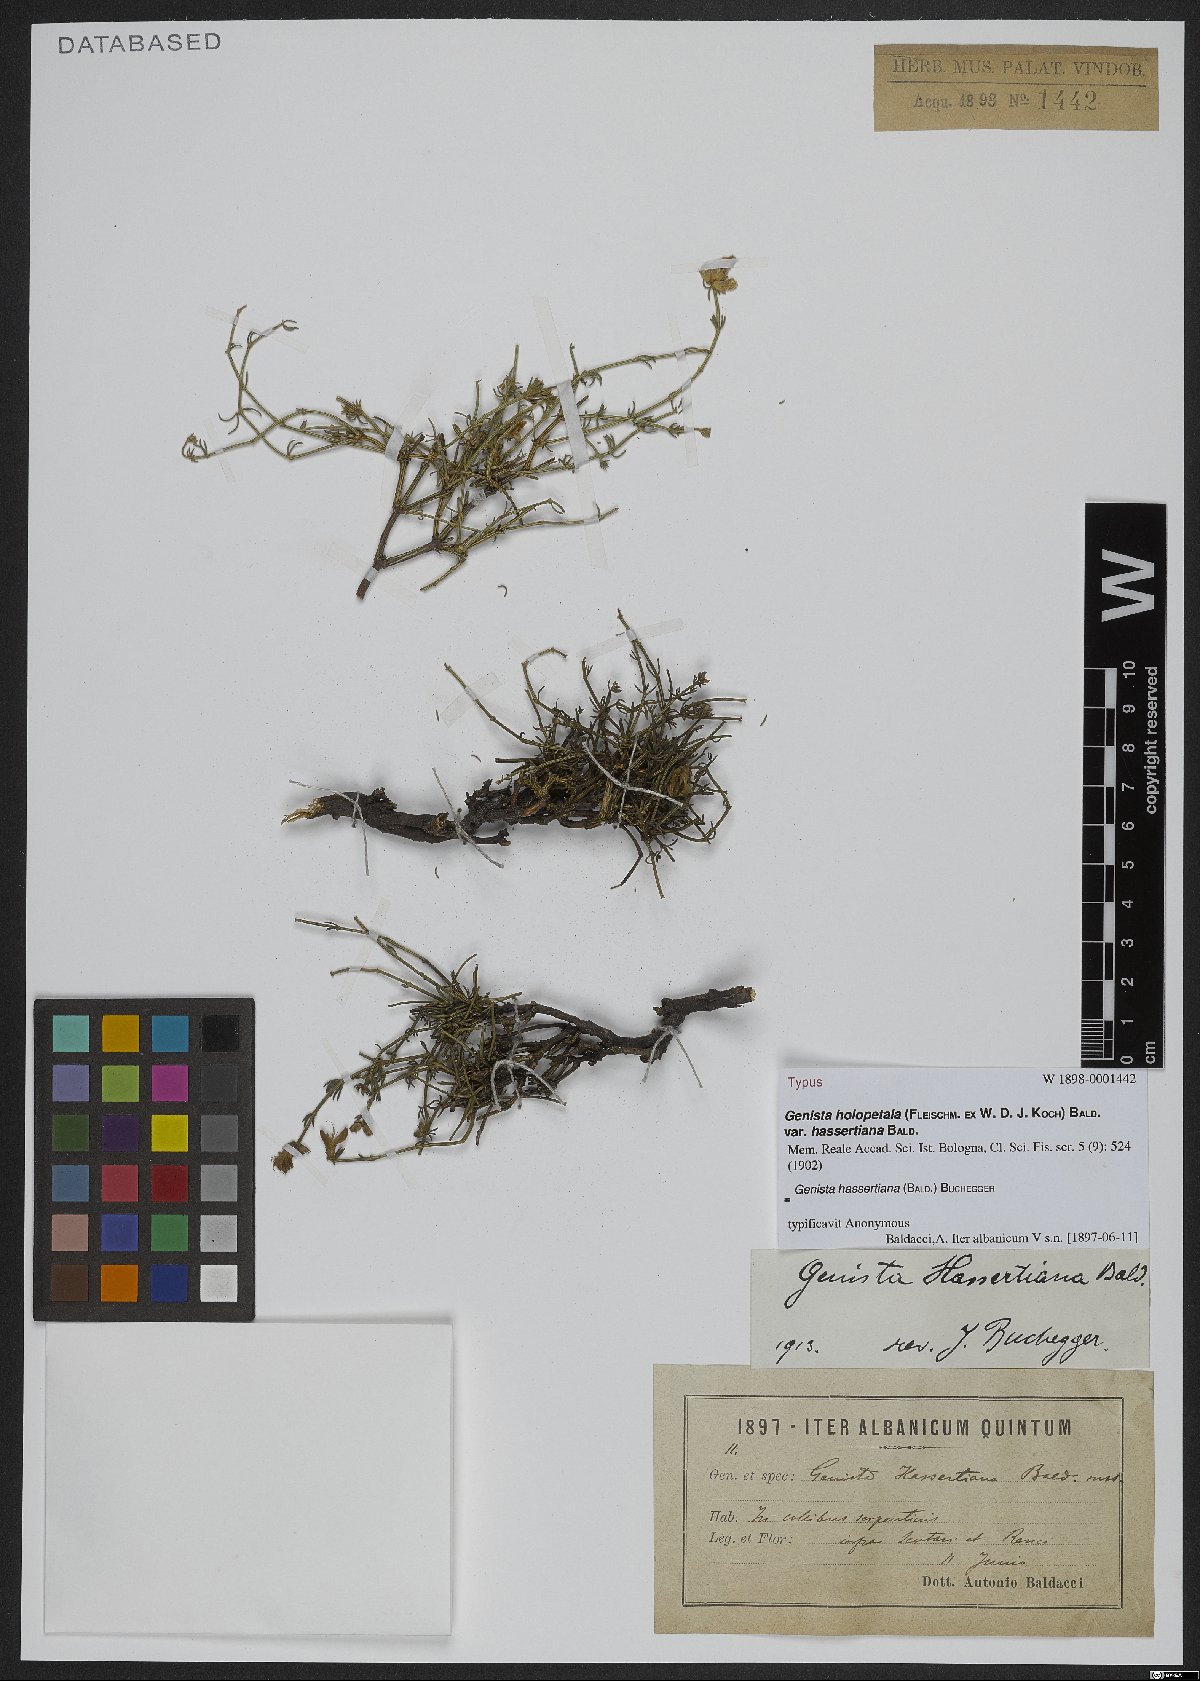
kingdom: Plantae
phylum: Tracheophyta
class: Magnoliopsida
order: Fabales
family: Fabaceae
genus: Genista
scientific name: Genista hassertiana
